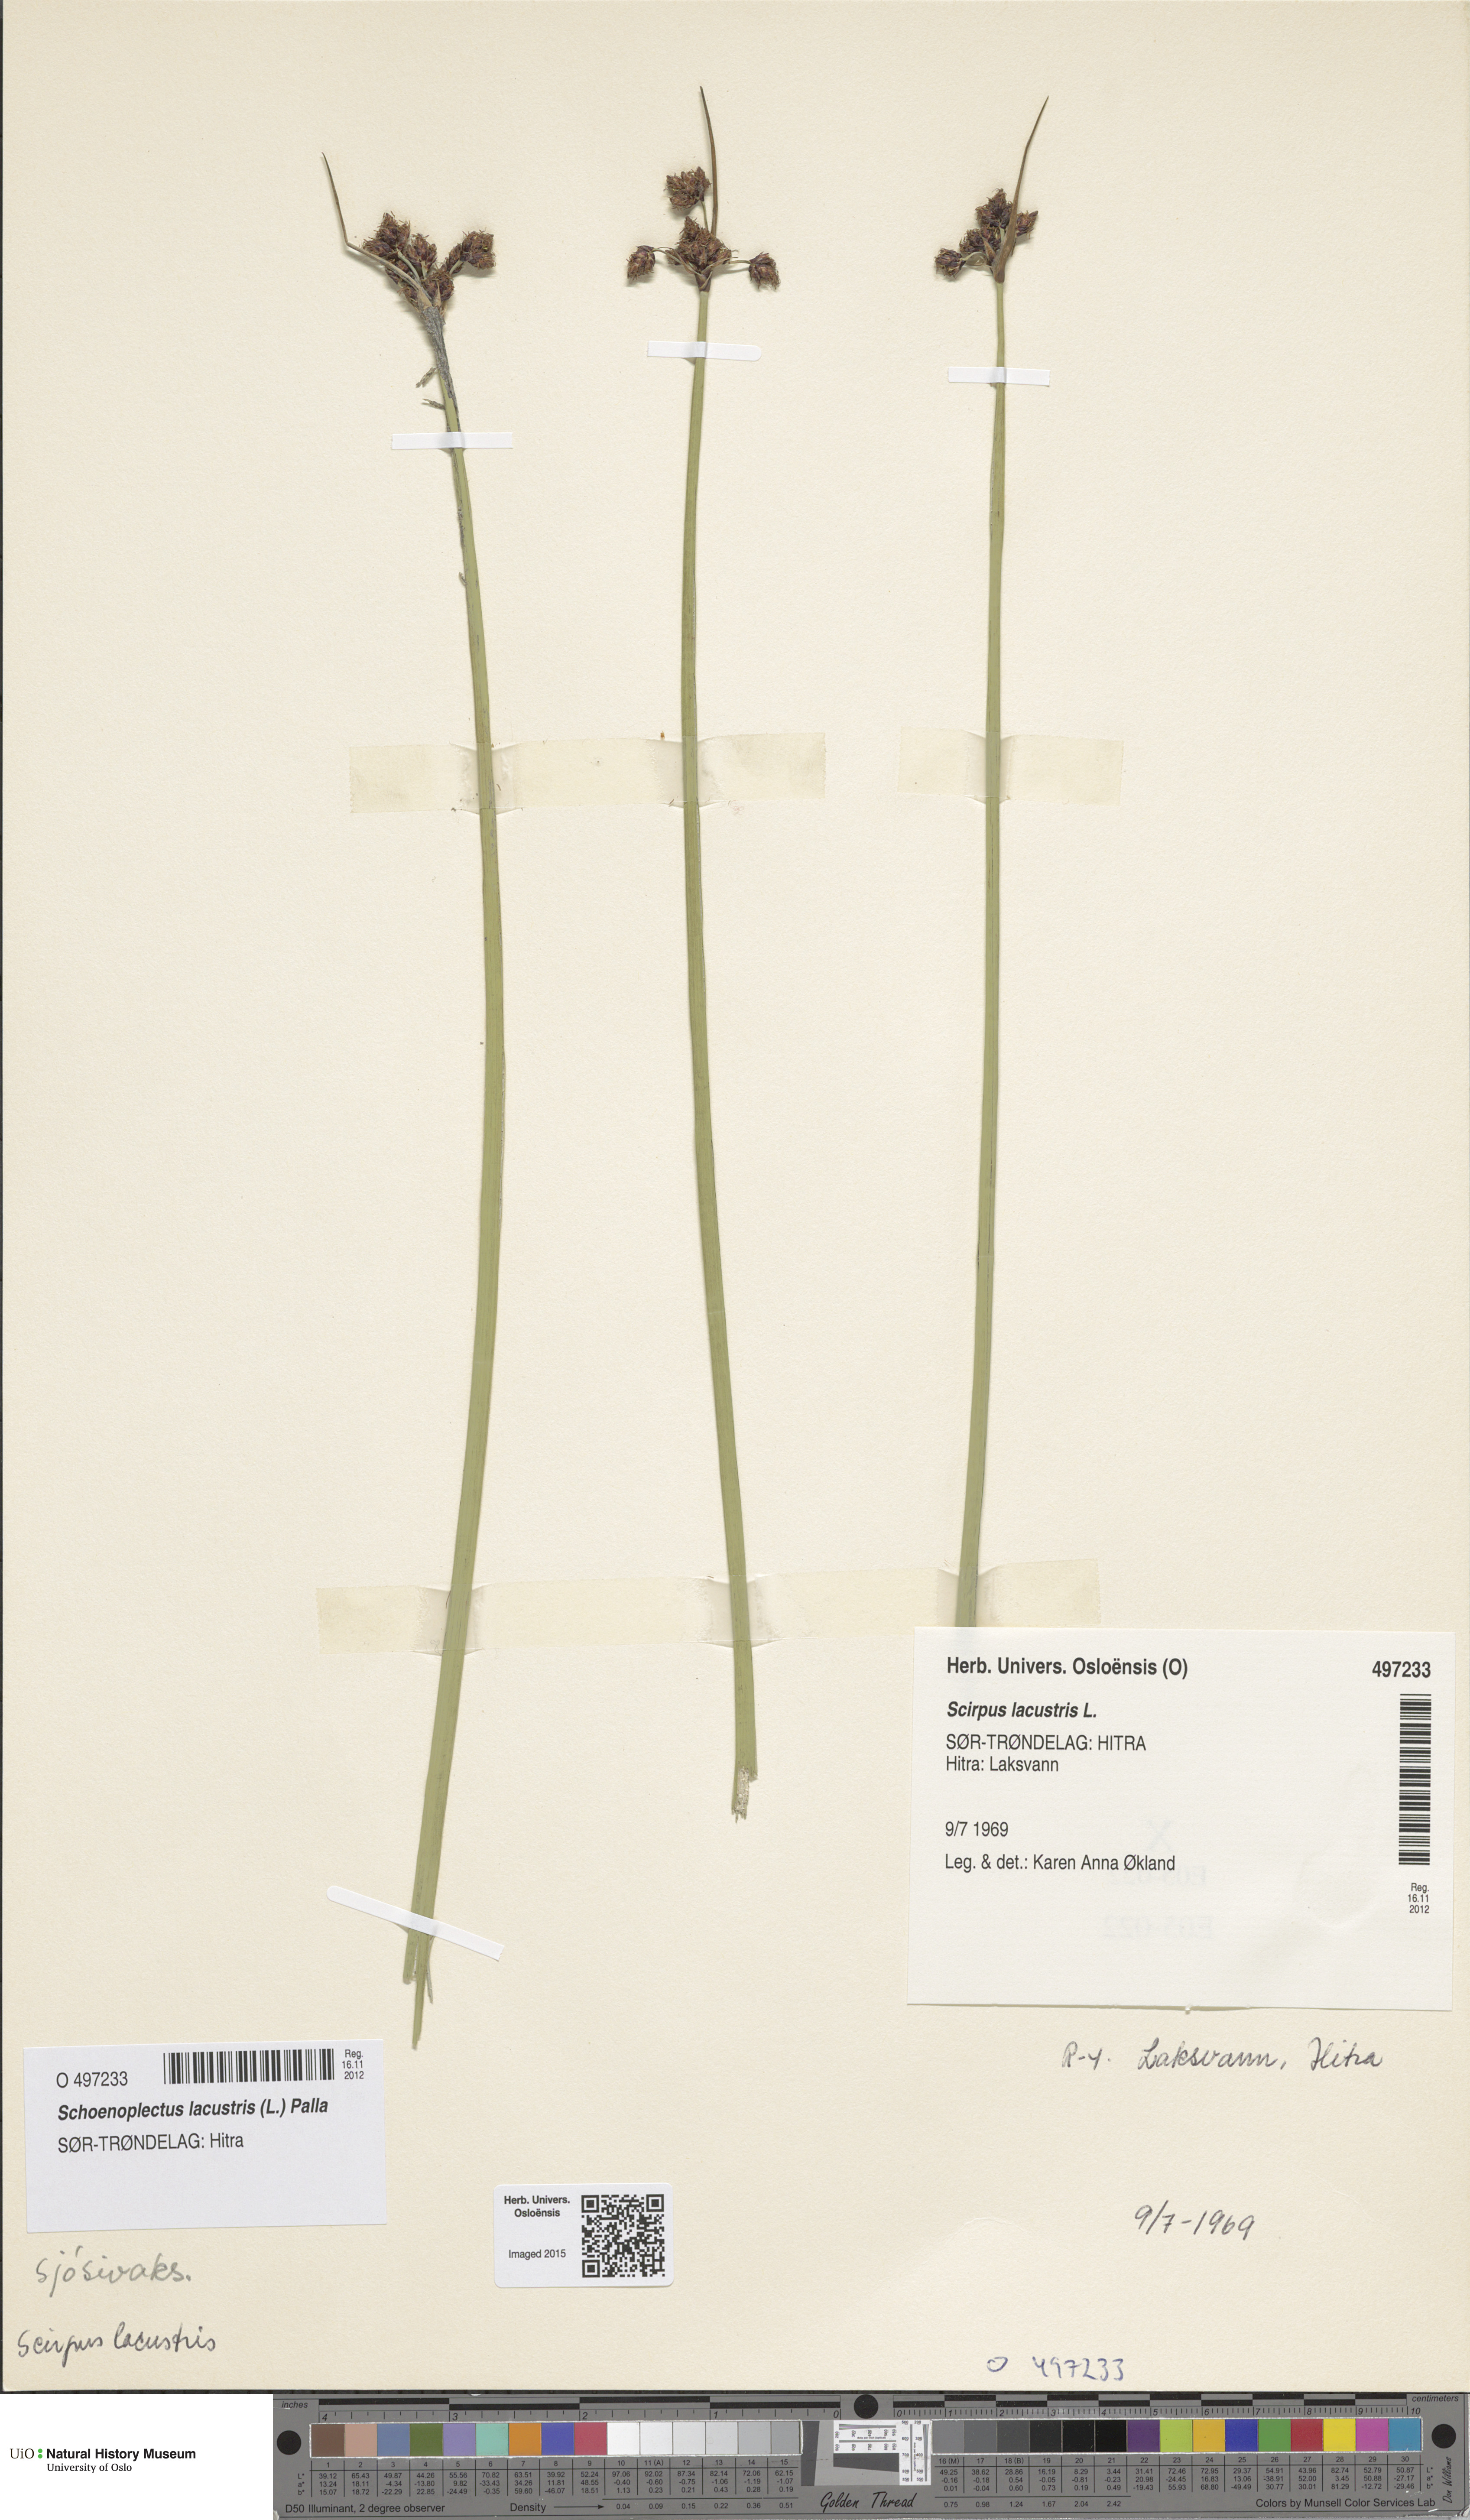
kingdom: Plantae
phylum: Tracheophyta
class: Liliopsida
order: Poales
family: Cyperaceae
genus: Schoenoplectus
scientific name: Schoenoplectus lacustris
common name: Common club-rush
